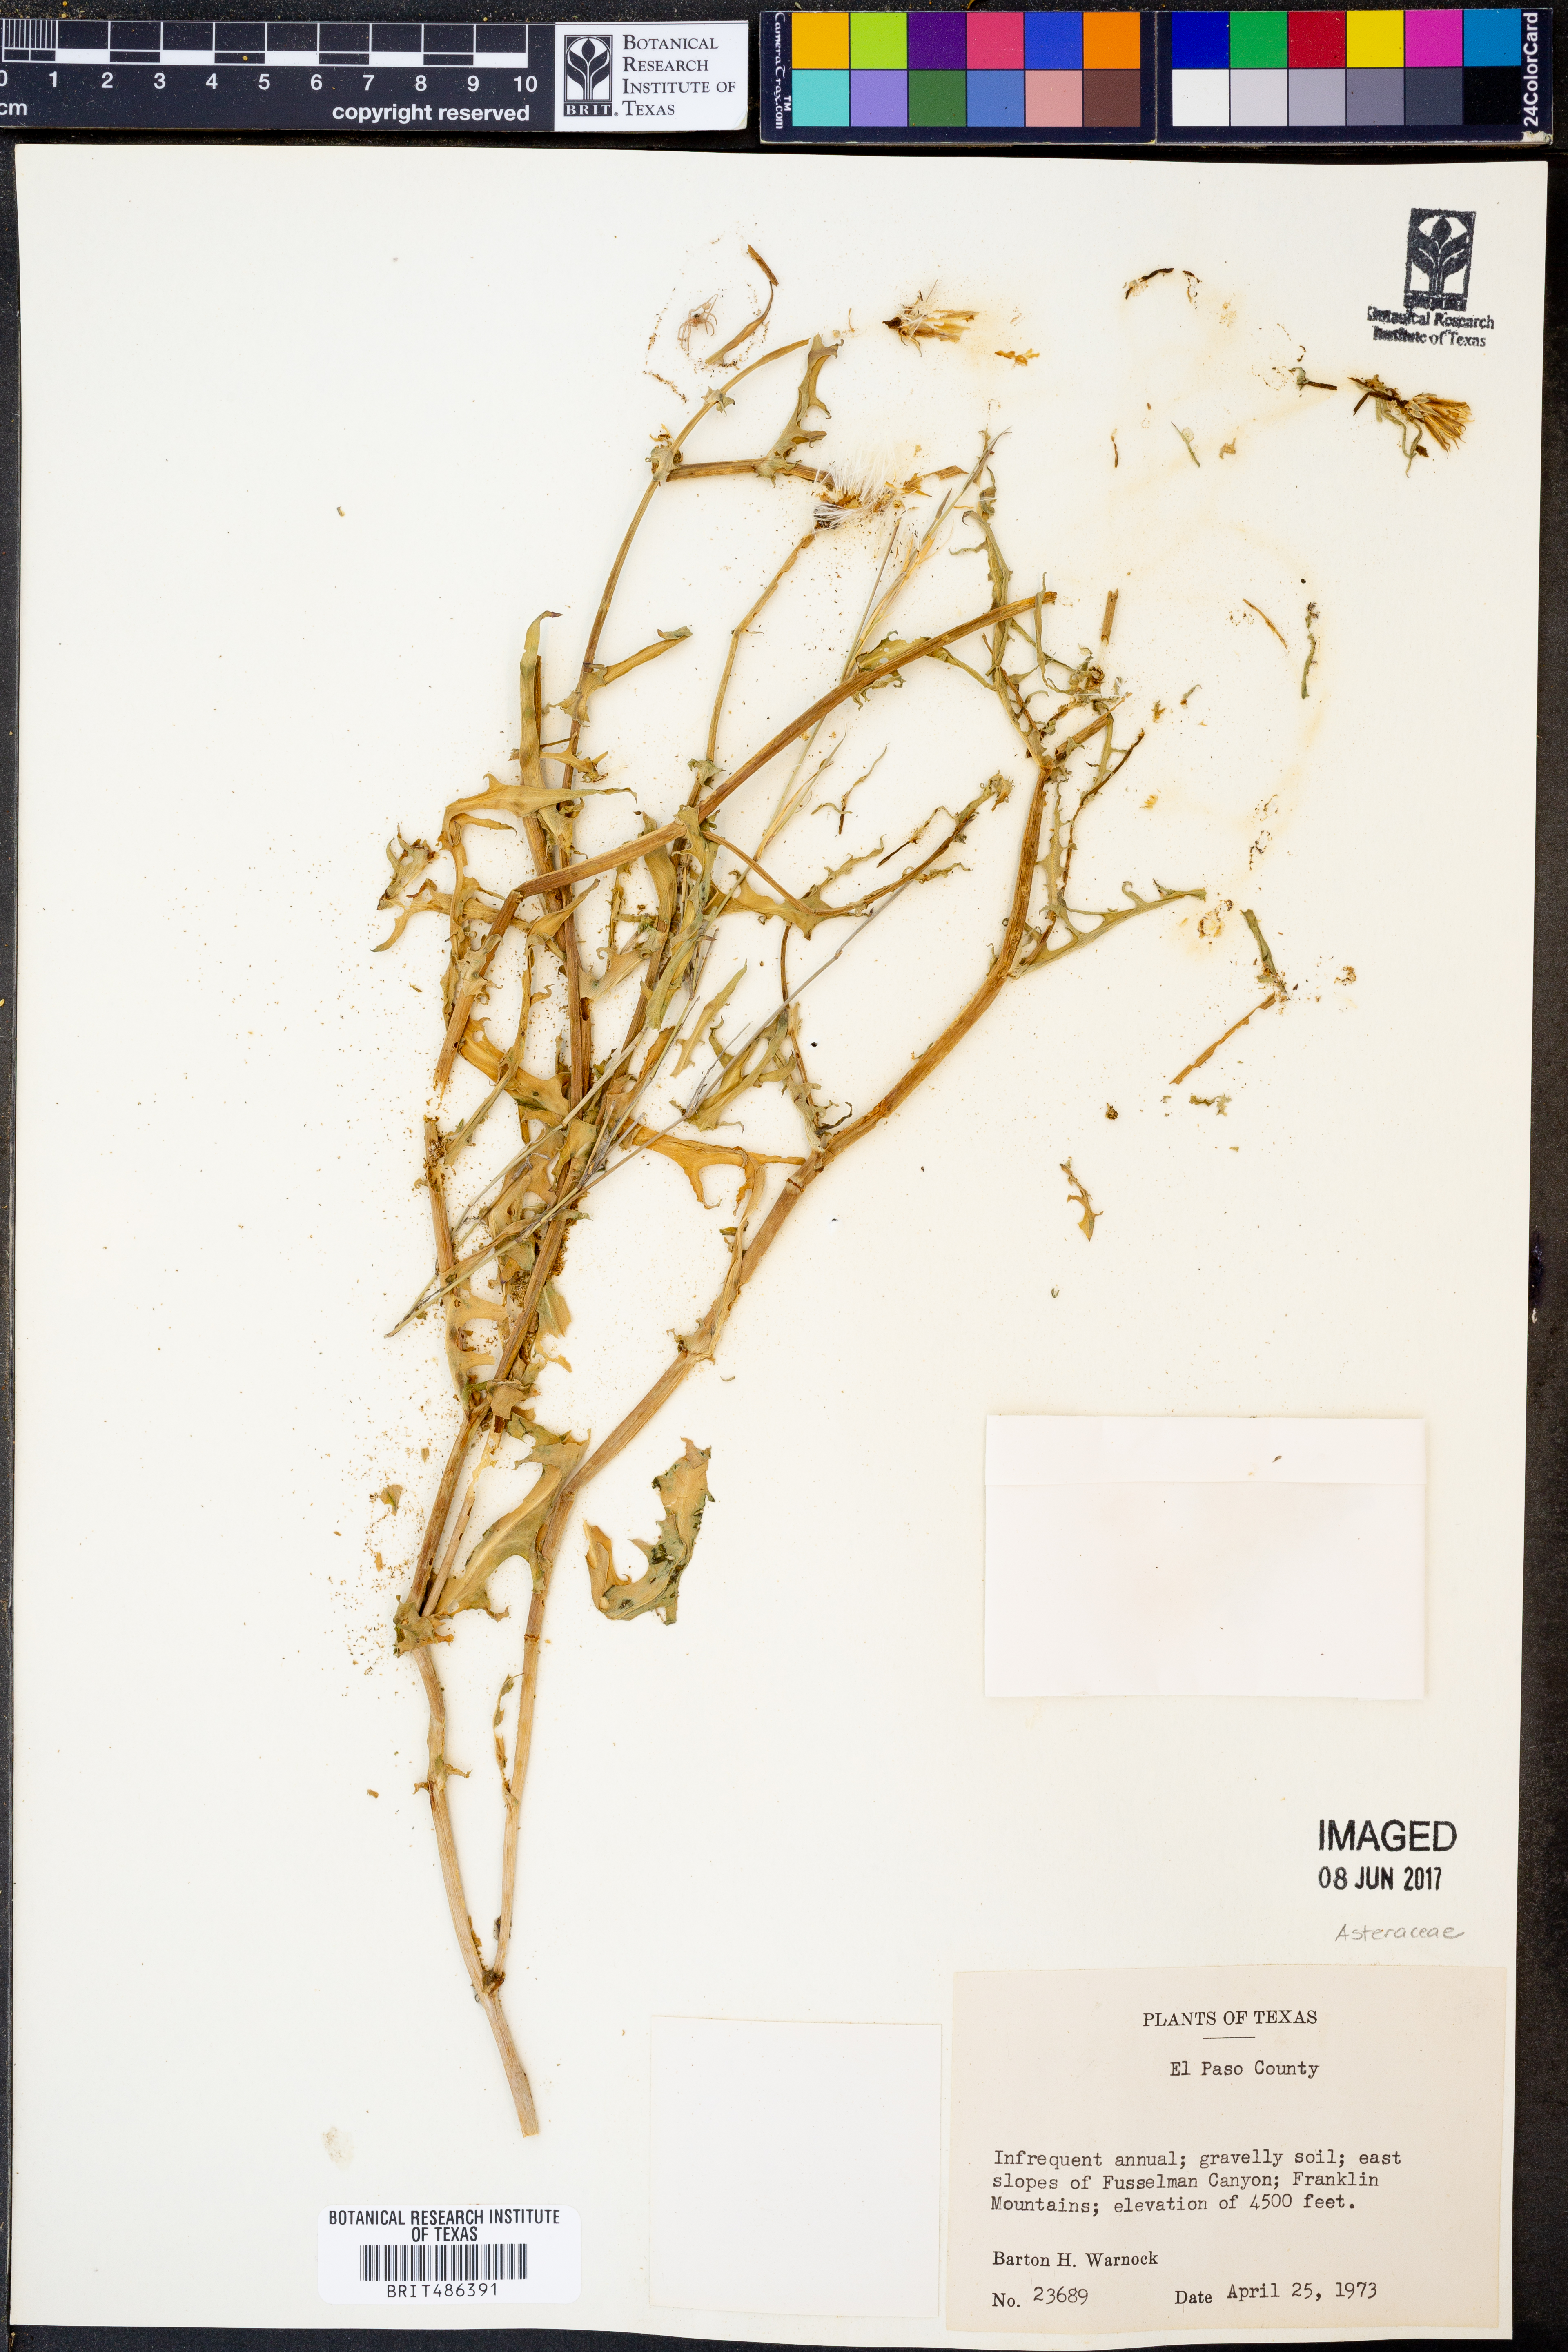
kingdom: Plantae
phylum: Tracheophyta
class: Magnoliopsida
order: Asterales
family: Asteraceae
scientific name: Asteraceae
